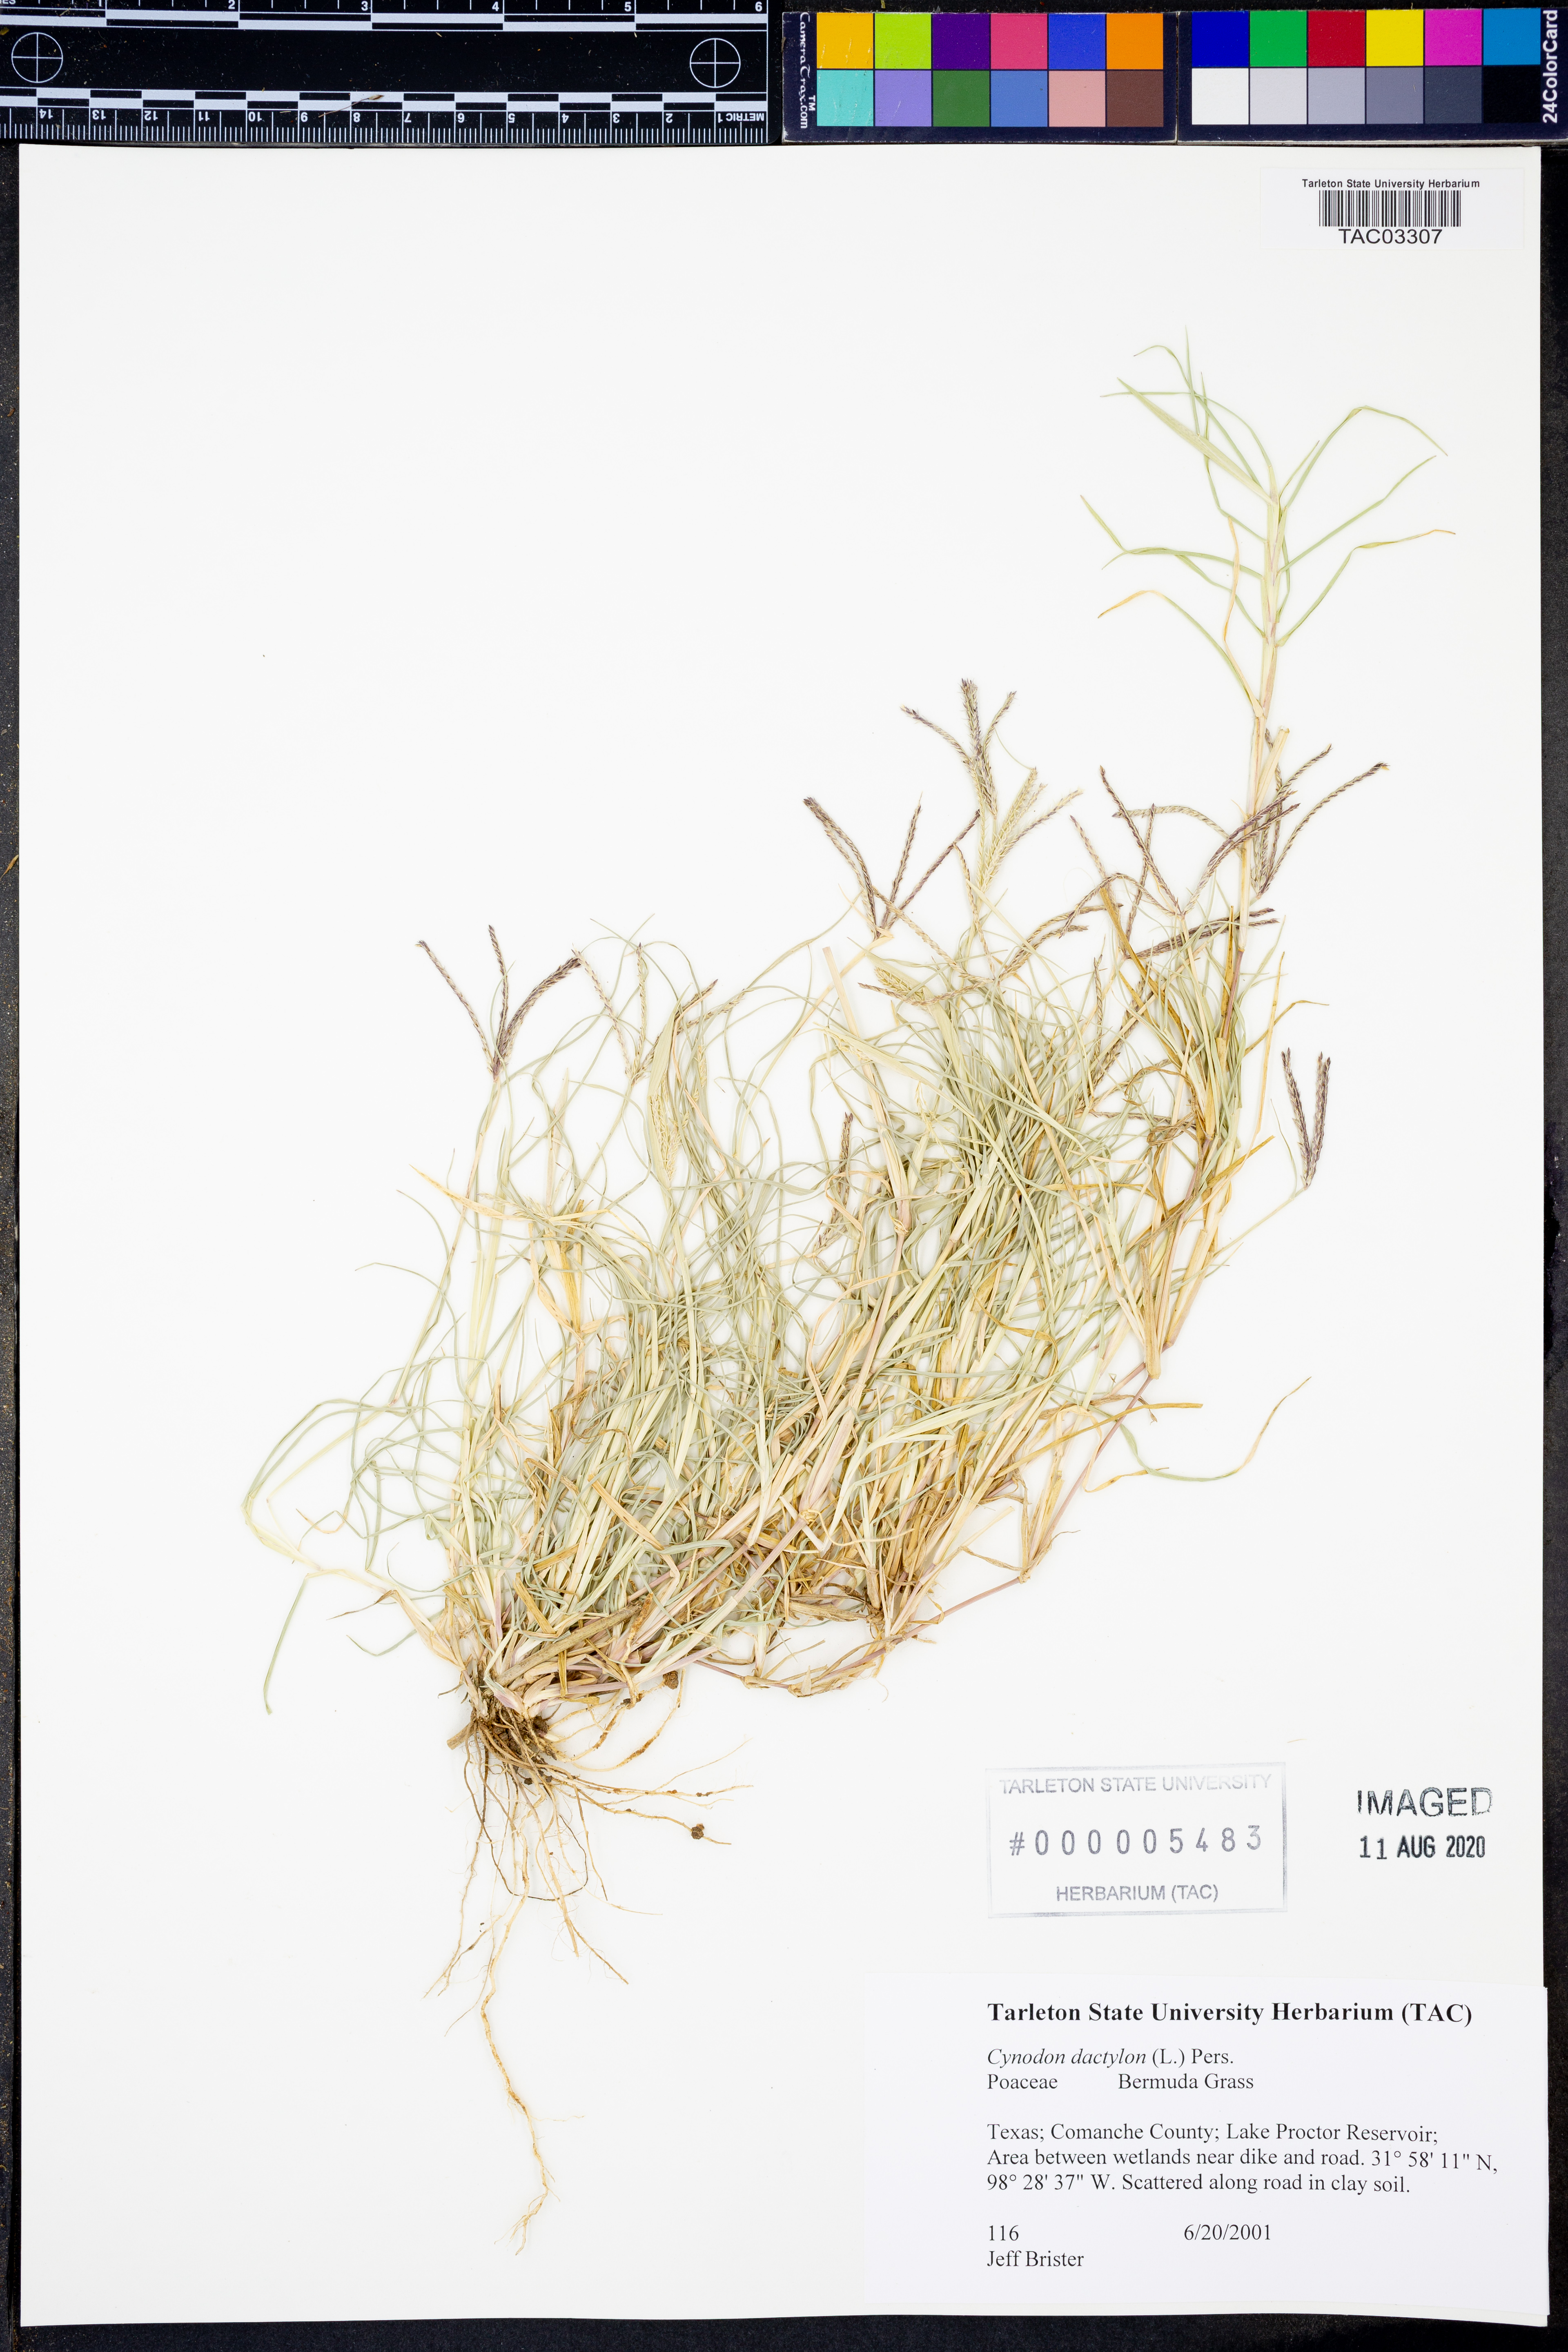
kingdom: Plantae
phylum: Tracheophyta
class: Liliopsida
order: Poales
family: Poaceae
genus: Cynodon
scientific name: Cynodon dactylon
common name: Bermuda grass
